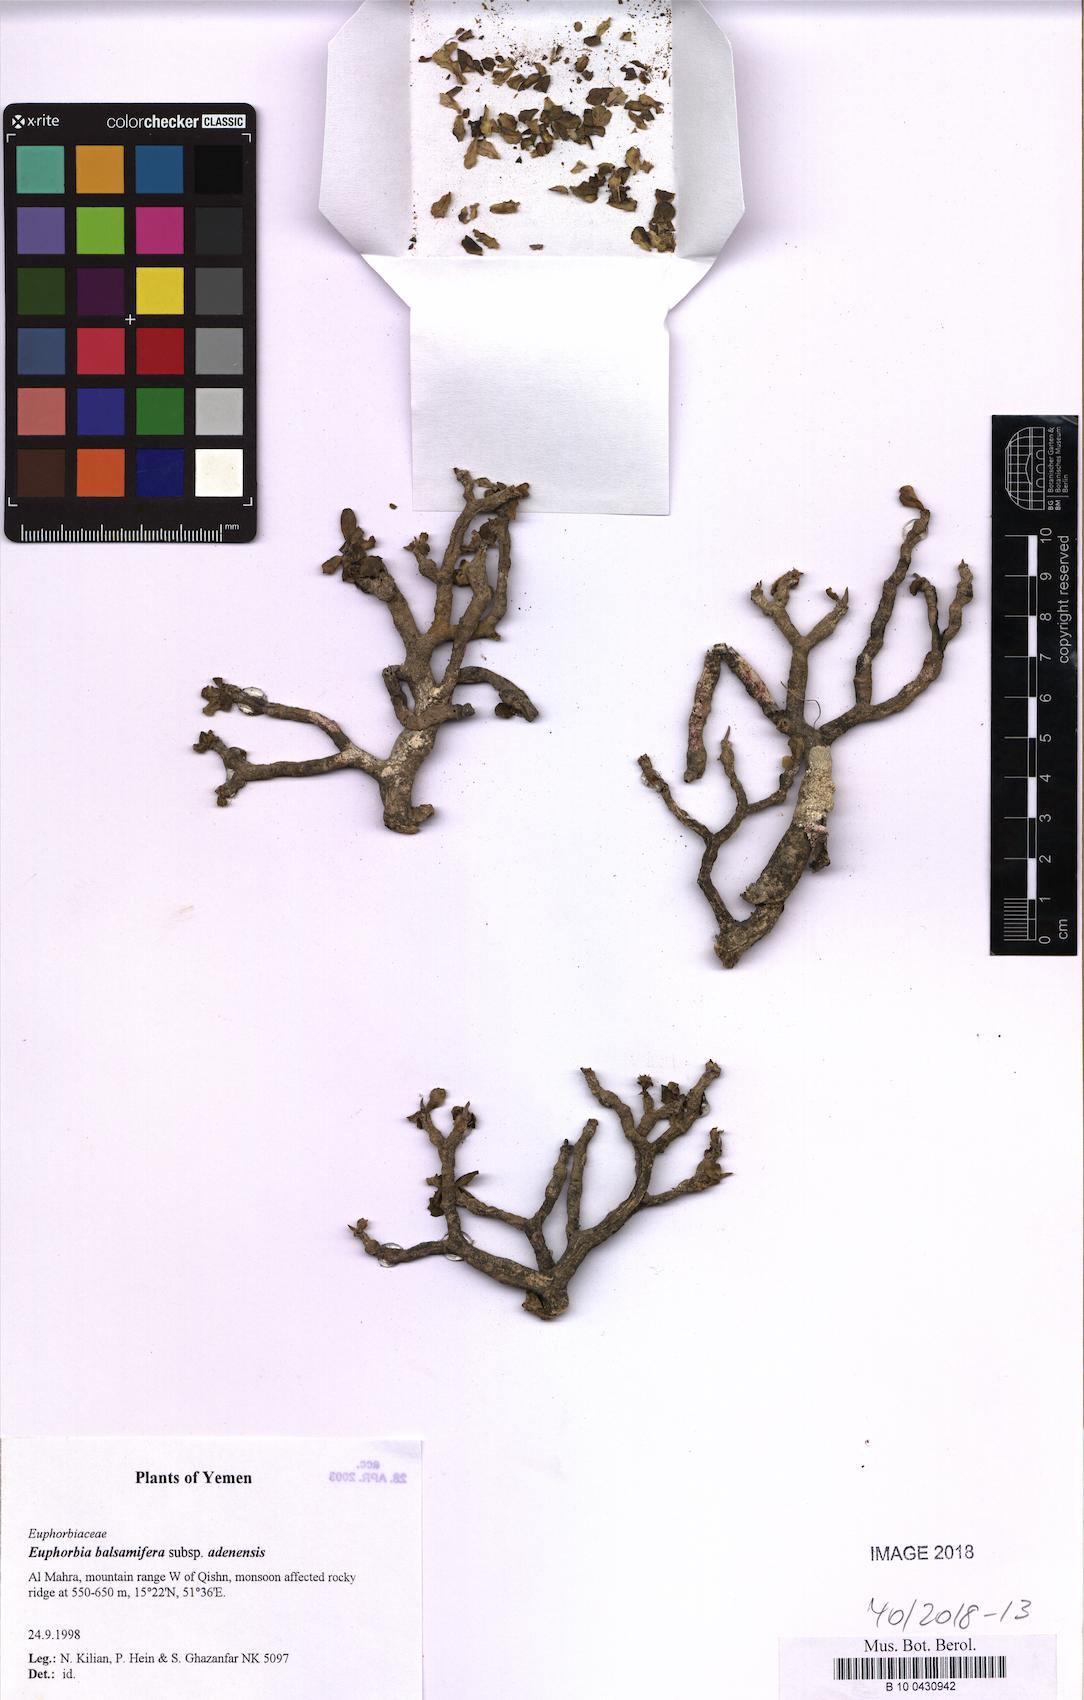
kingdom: Plantae
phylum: Tracheophyta
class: Magnoliopsida
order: Malpighiales
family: Euphorbiaceae
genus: Euphorbia
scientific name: Euphorbia adenensis
